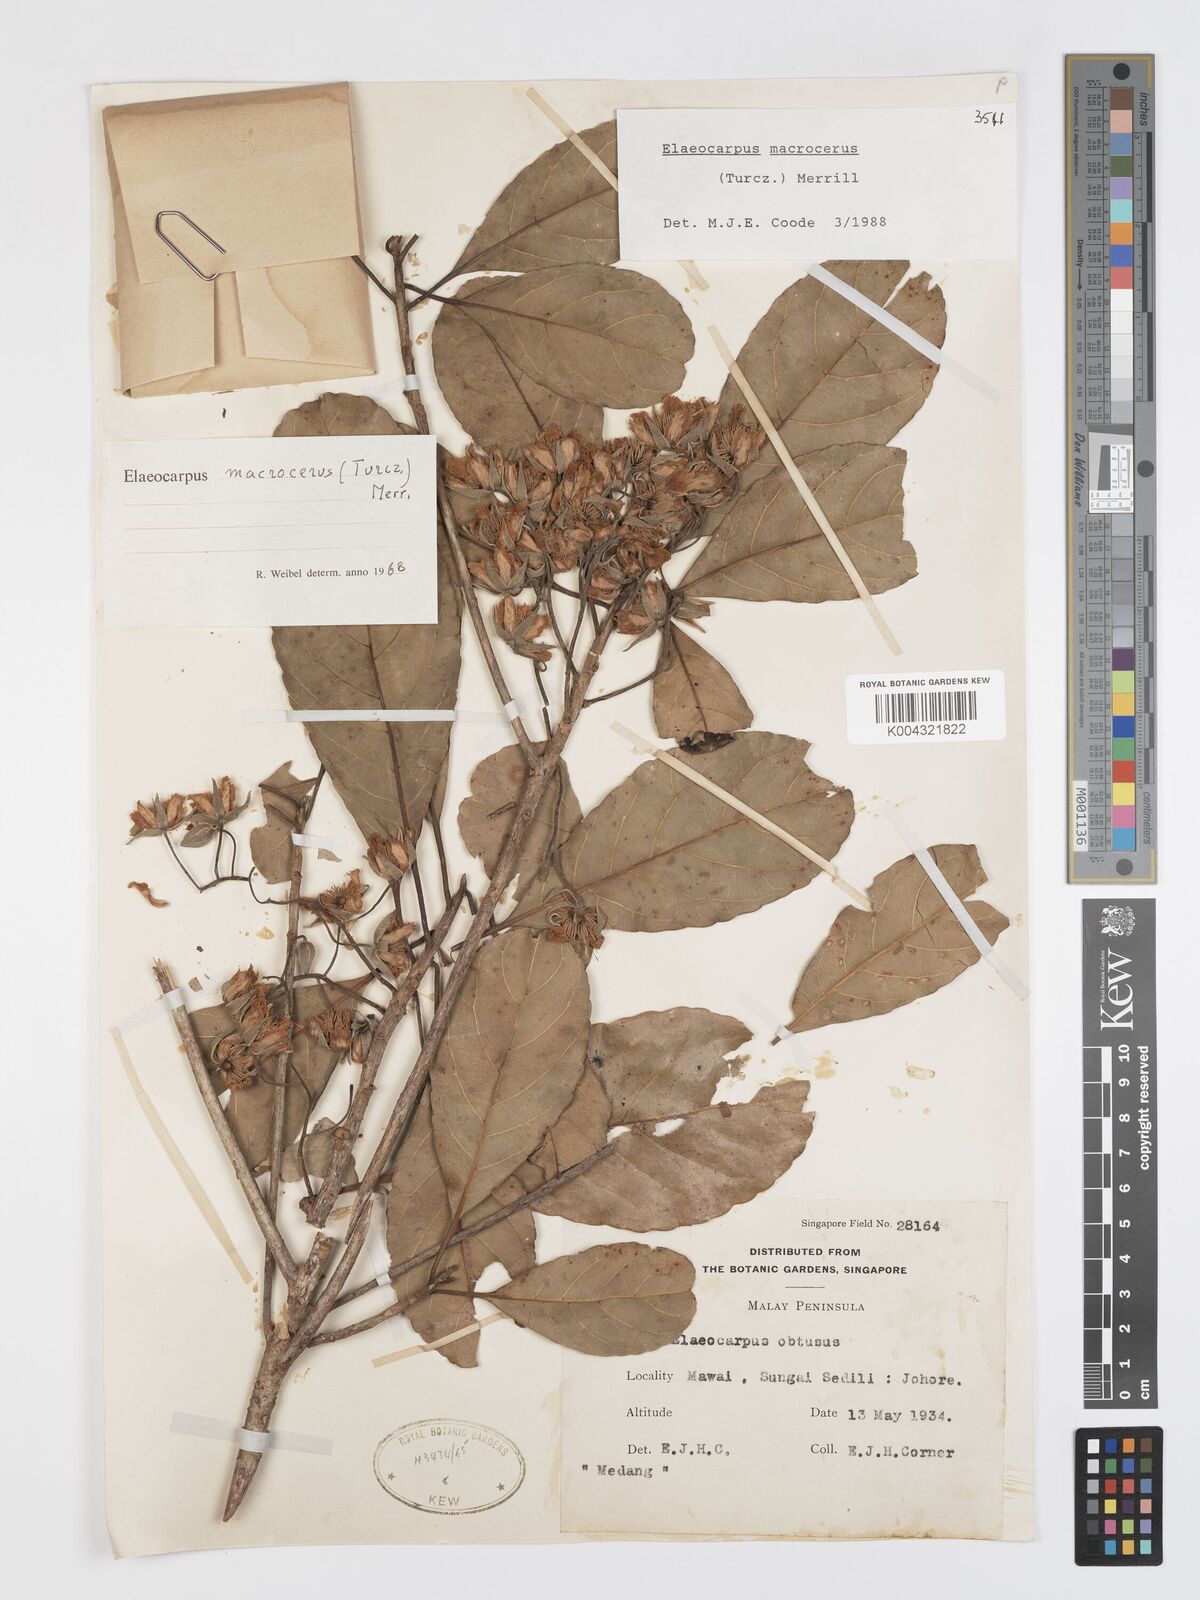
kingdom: Plantae
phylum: Tracheophyta
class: Magnoliopsida
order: Oxalidales
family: Elaeocarpaceae
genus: Elaeocarpus
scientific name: Elaeocarpus macrocerus
